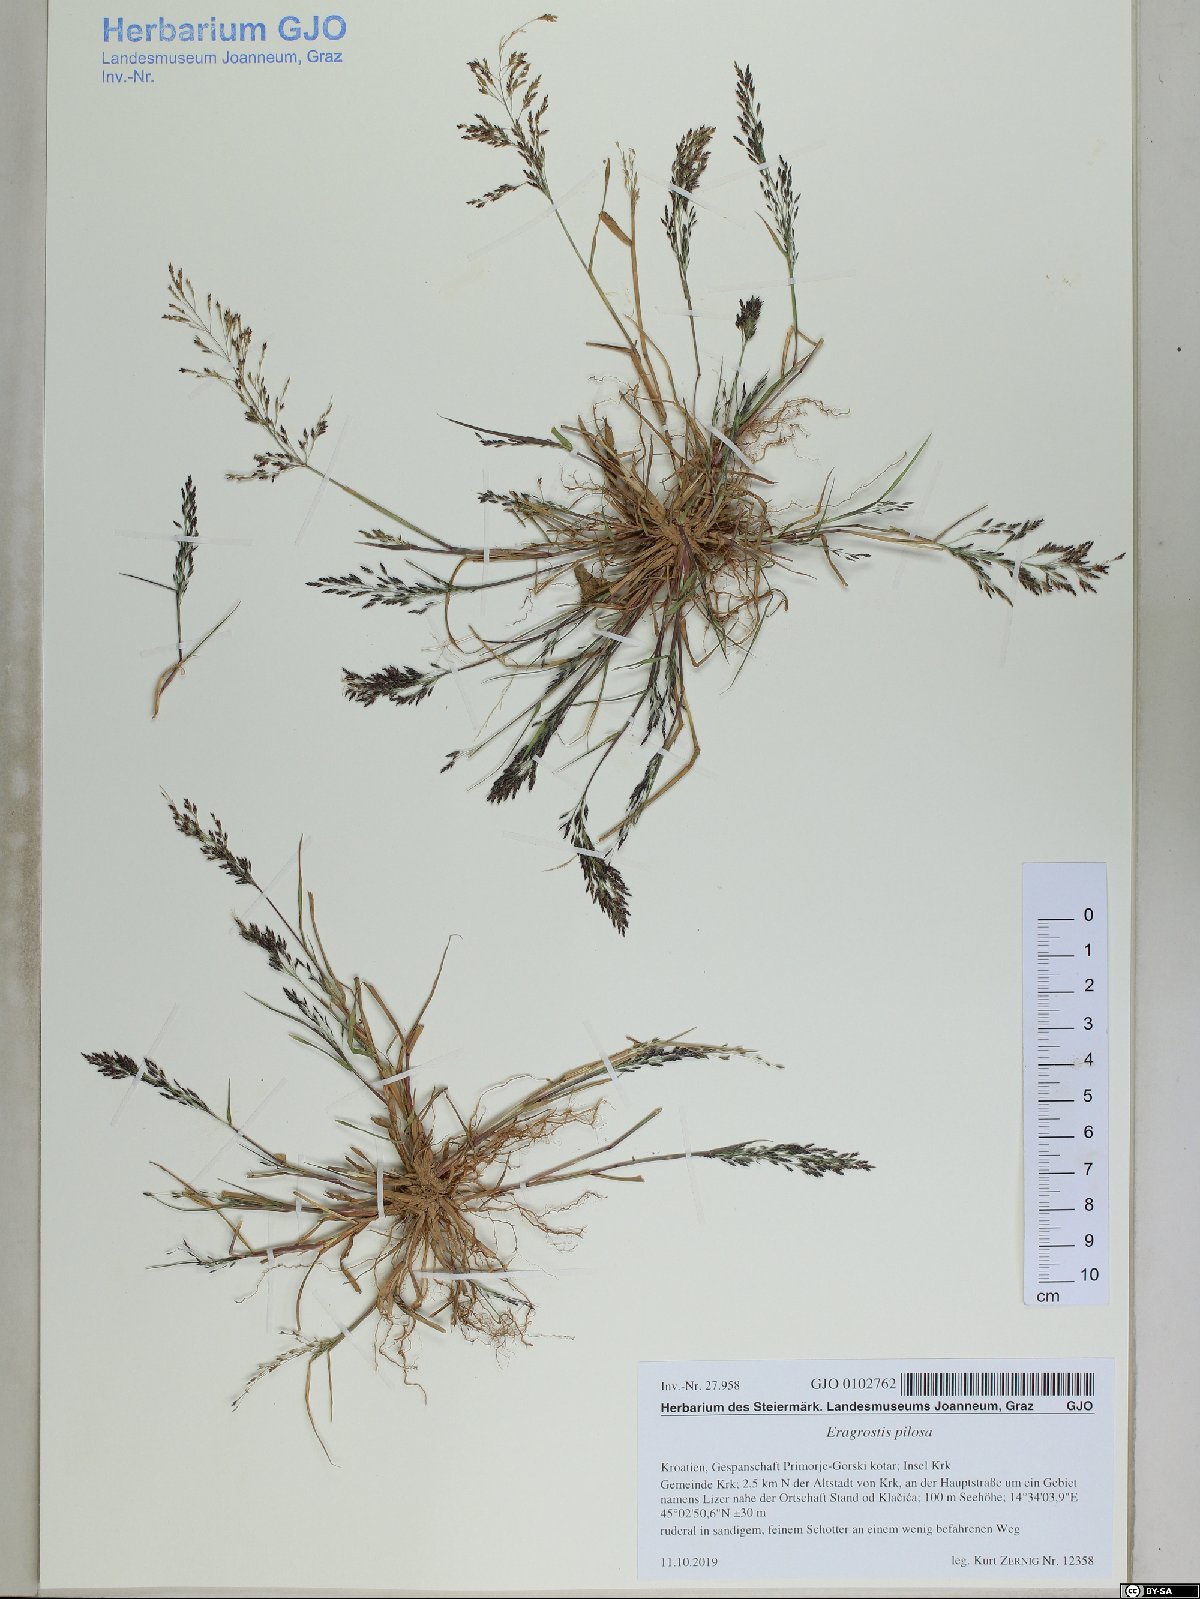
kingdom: Plantae
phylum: Tracheophyta
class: Liliopsida
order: Poales
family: Poaceae
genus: Eragrostis
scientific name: Eragrostis pilosa
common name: Indian lovegrass
